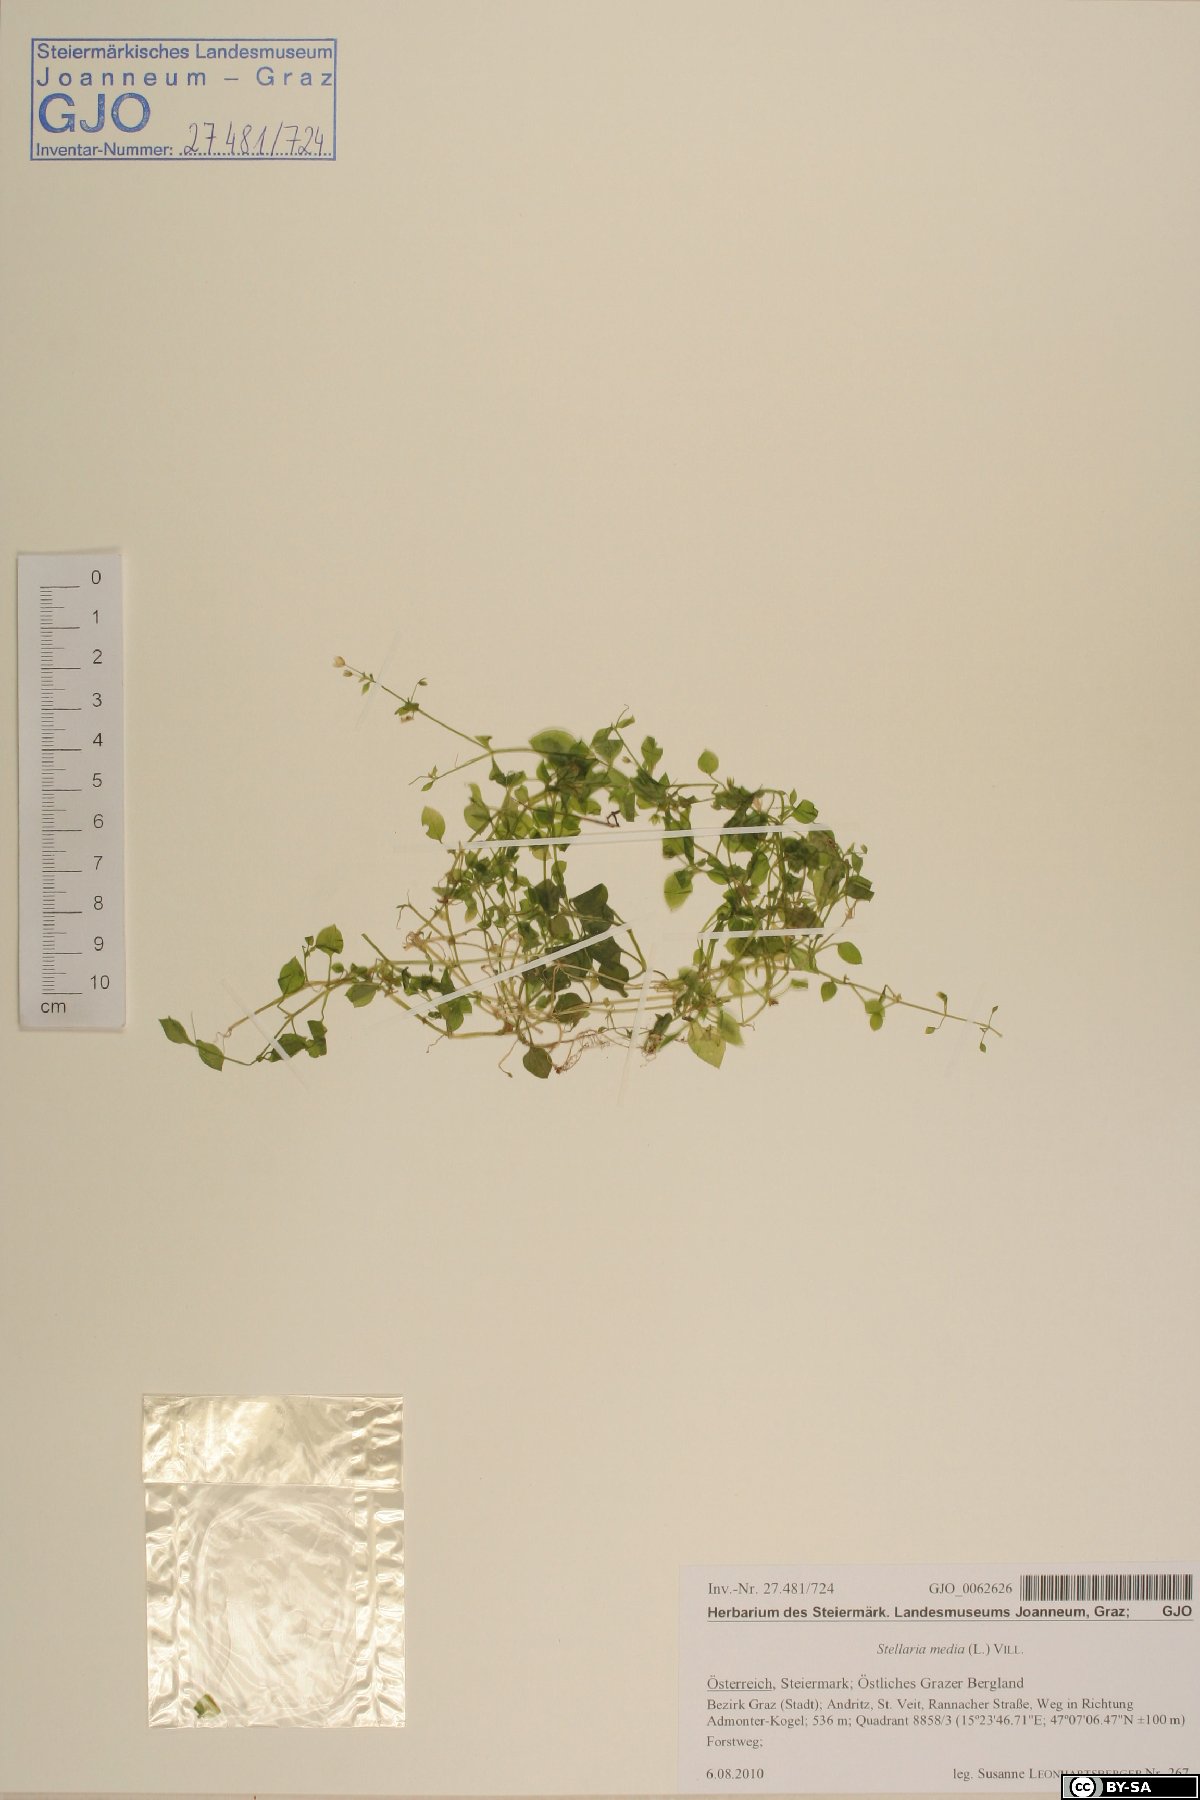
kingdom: Plantae
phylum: Tracheophyta
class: Magnoliopsida
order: Caryophyllales
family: Caryophyllaceae
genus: Stellaria
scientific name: Stellaria media
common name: Common chickweed
